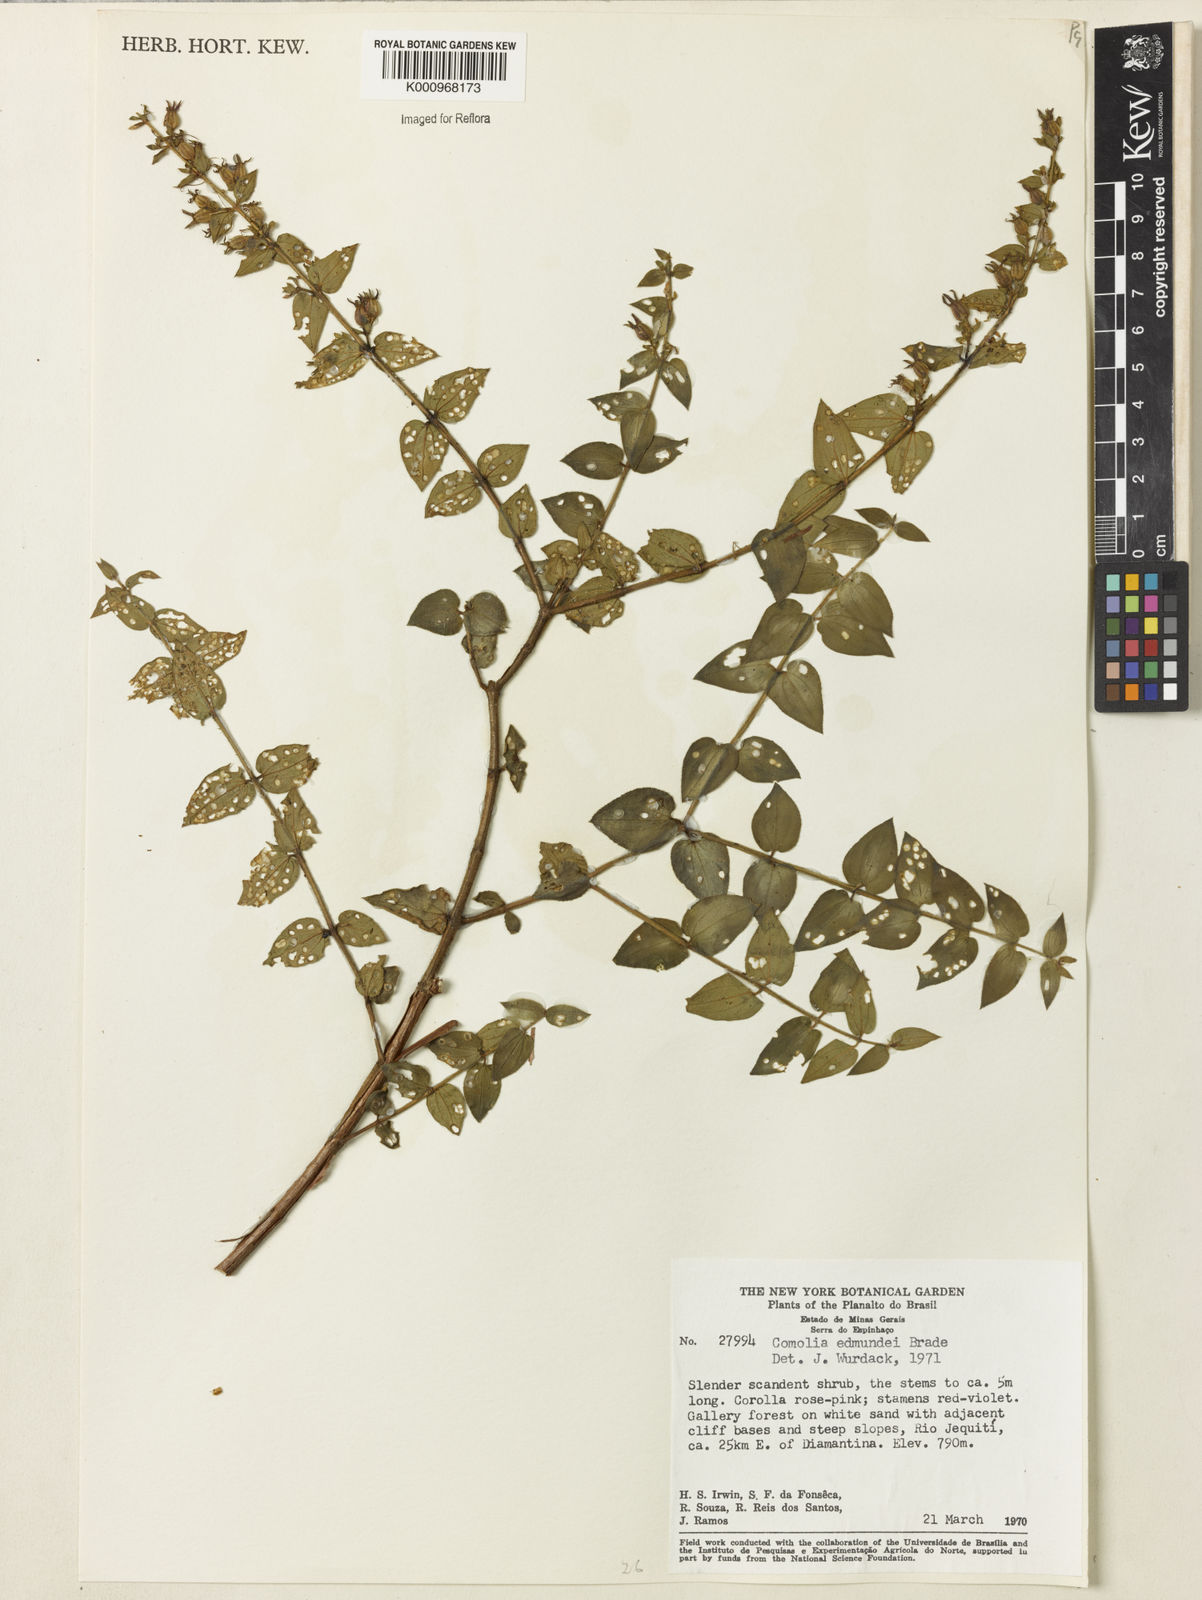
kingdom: Plantae
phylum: Tracheophyta
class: Magnoliopsida
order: Myrtales
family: Melastomataceae
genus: Fritzschia
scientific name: Fritzschia edmundoi
